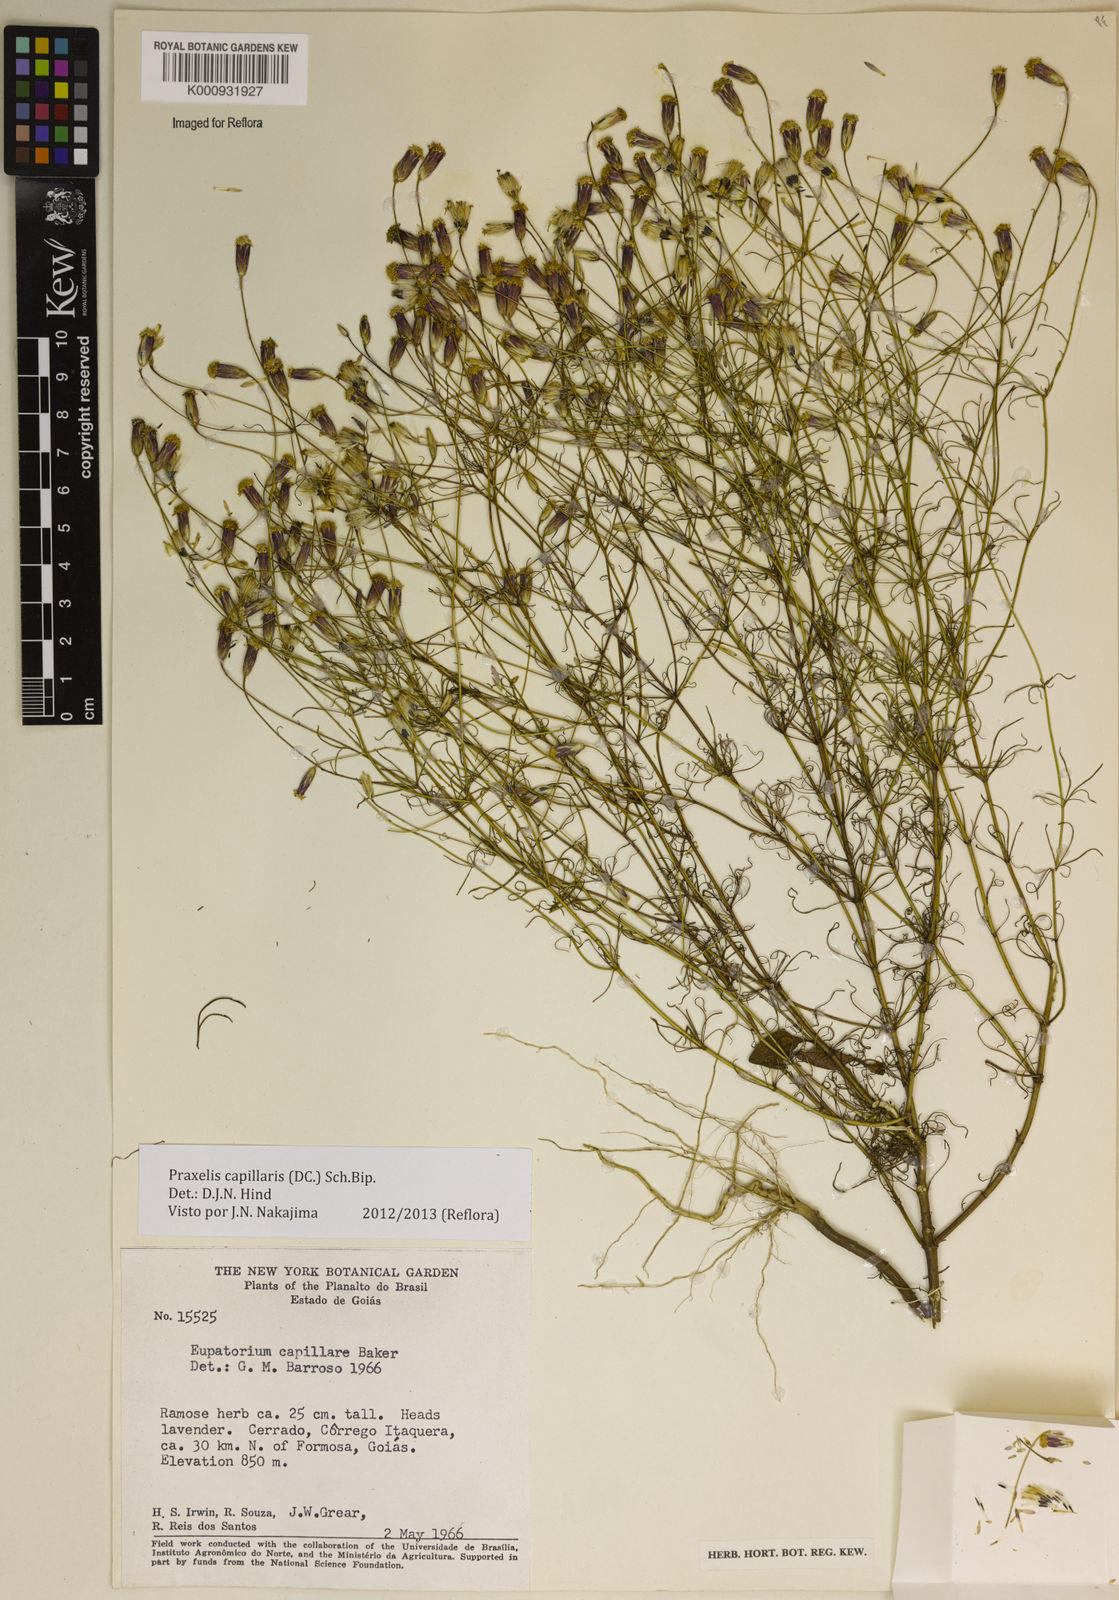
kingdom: Plantae
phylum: Tracheophyta
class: Magnoliopsida
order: Asterales
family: Asteraceae
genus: Praxelis
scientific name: Praxelis capillaris
